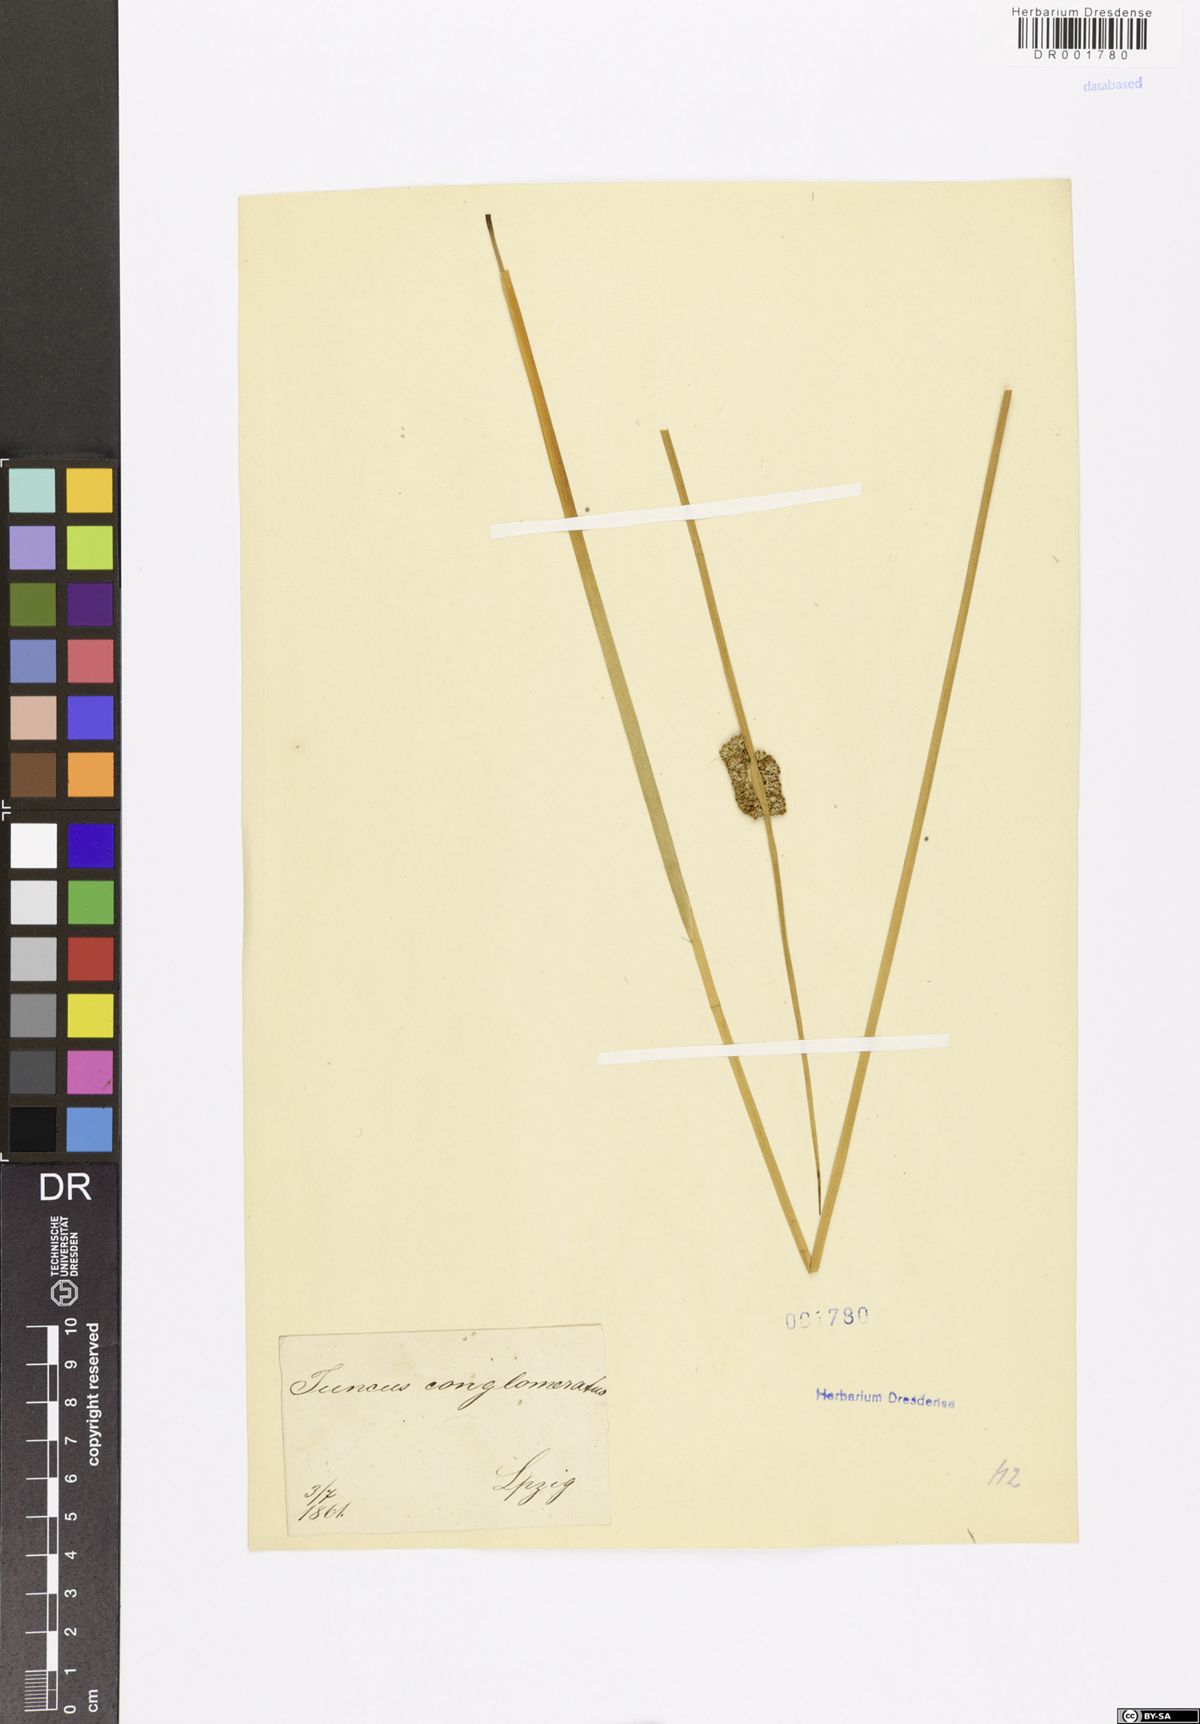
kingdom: Plantae
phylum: Tracheophyta
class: Liliopsida
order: Poales
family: Juncaceae
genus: Juncus
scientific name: Juncus conglomeratus
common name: Compact rush
